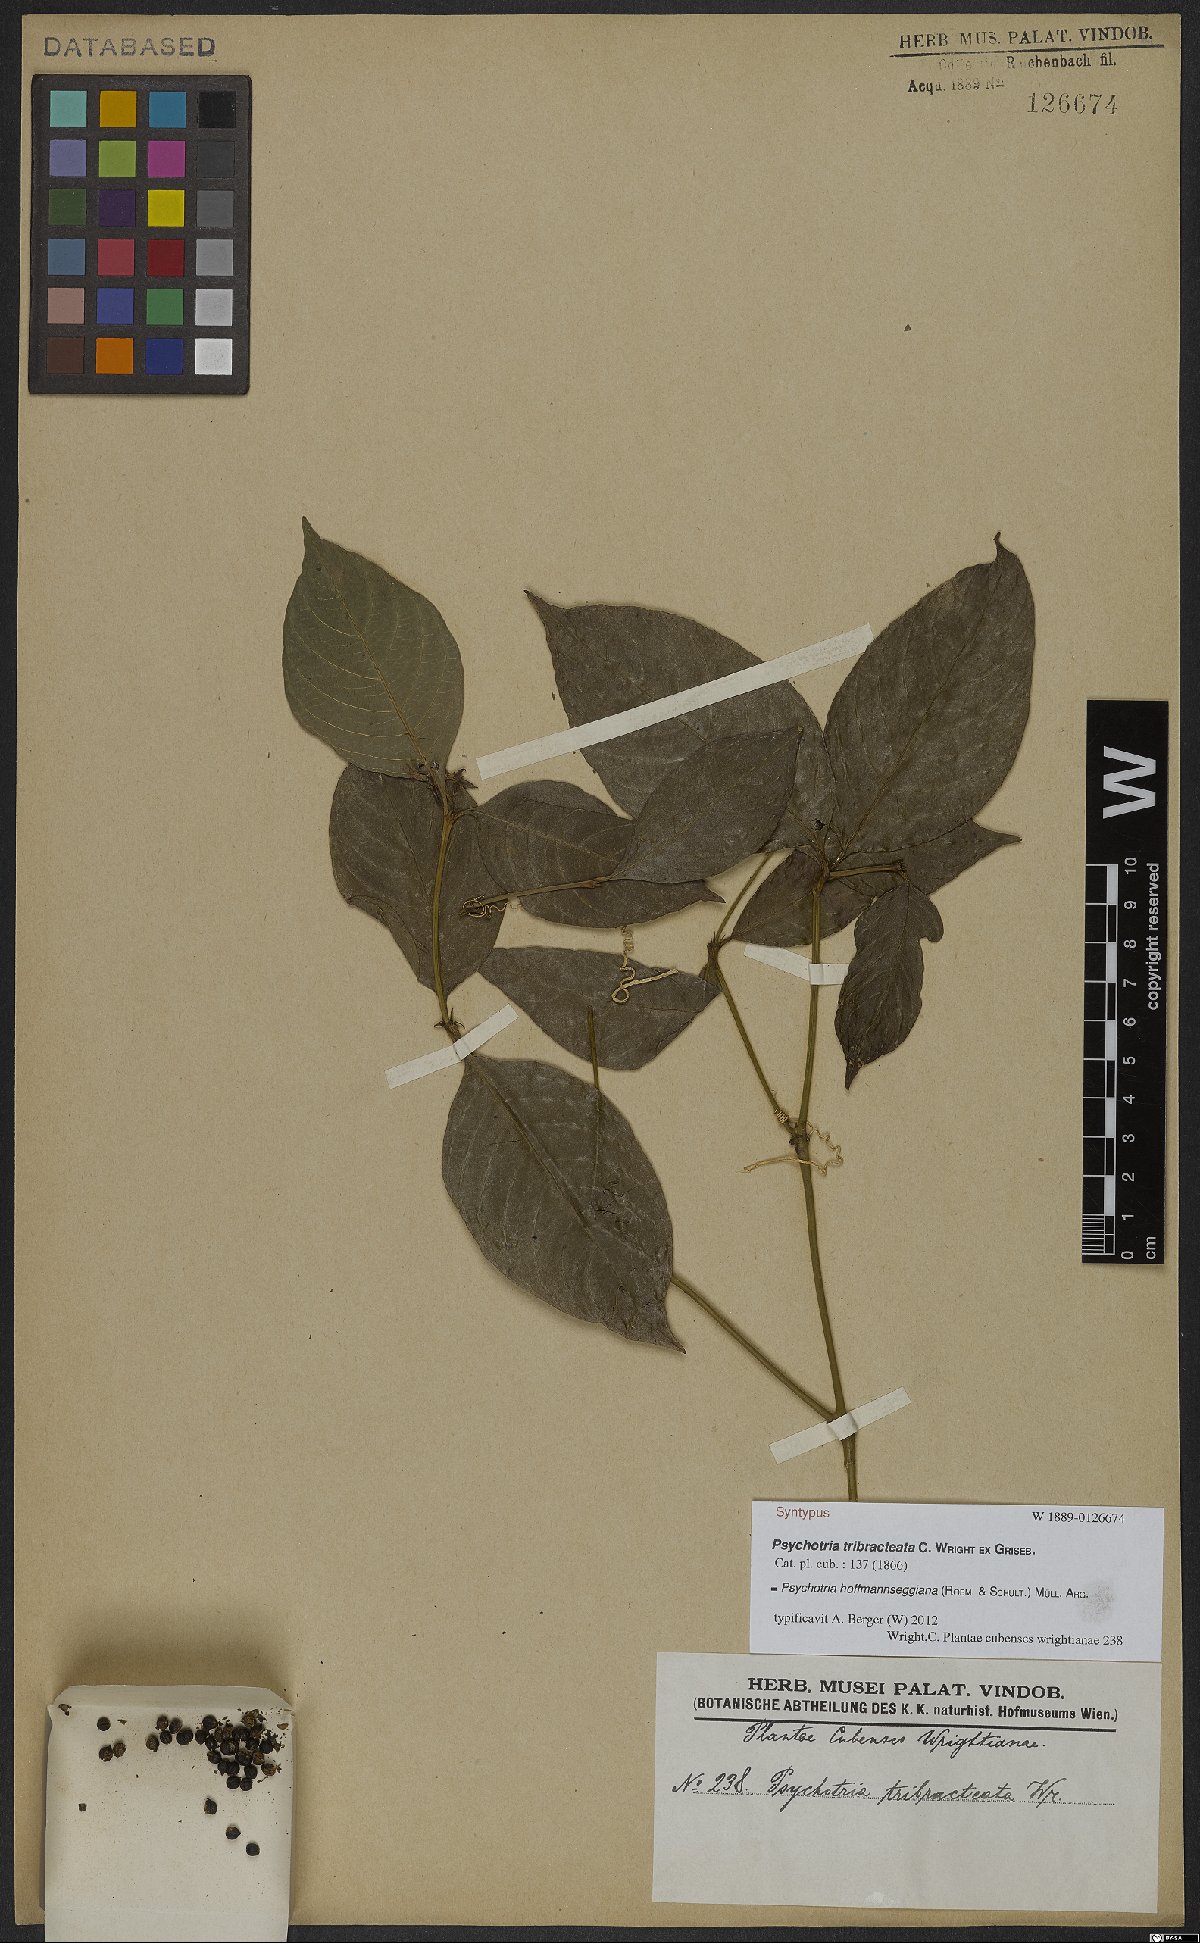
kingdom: Plantae
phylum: Tracheophyta
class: Magnoliopsida
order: Gentianales
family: Rubiaceae
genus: Palicourea
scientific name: Palicourea hoffmannseggiana
